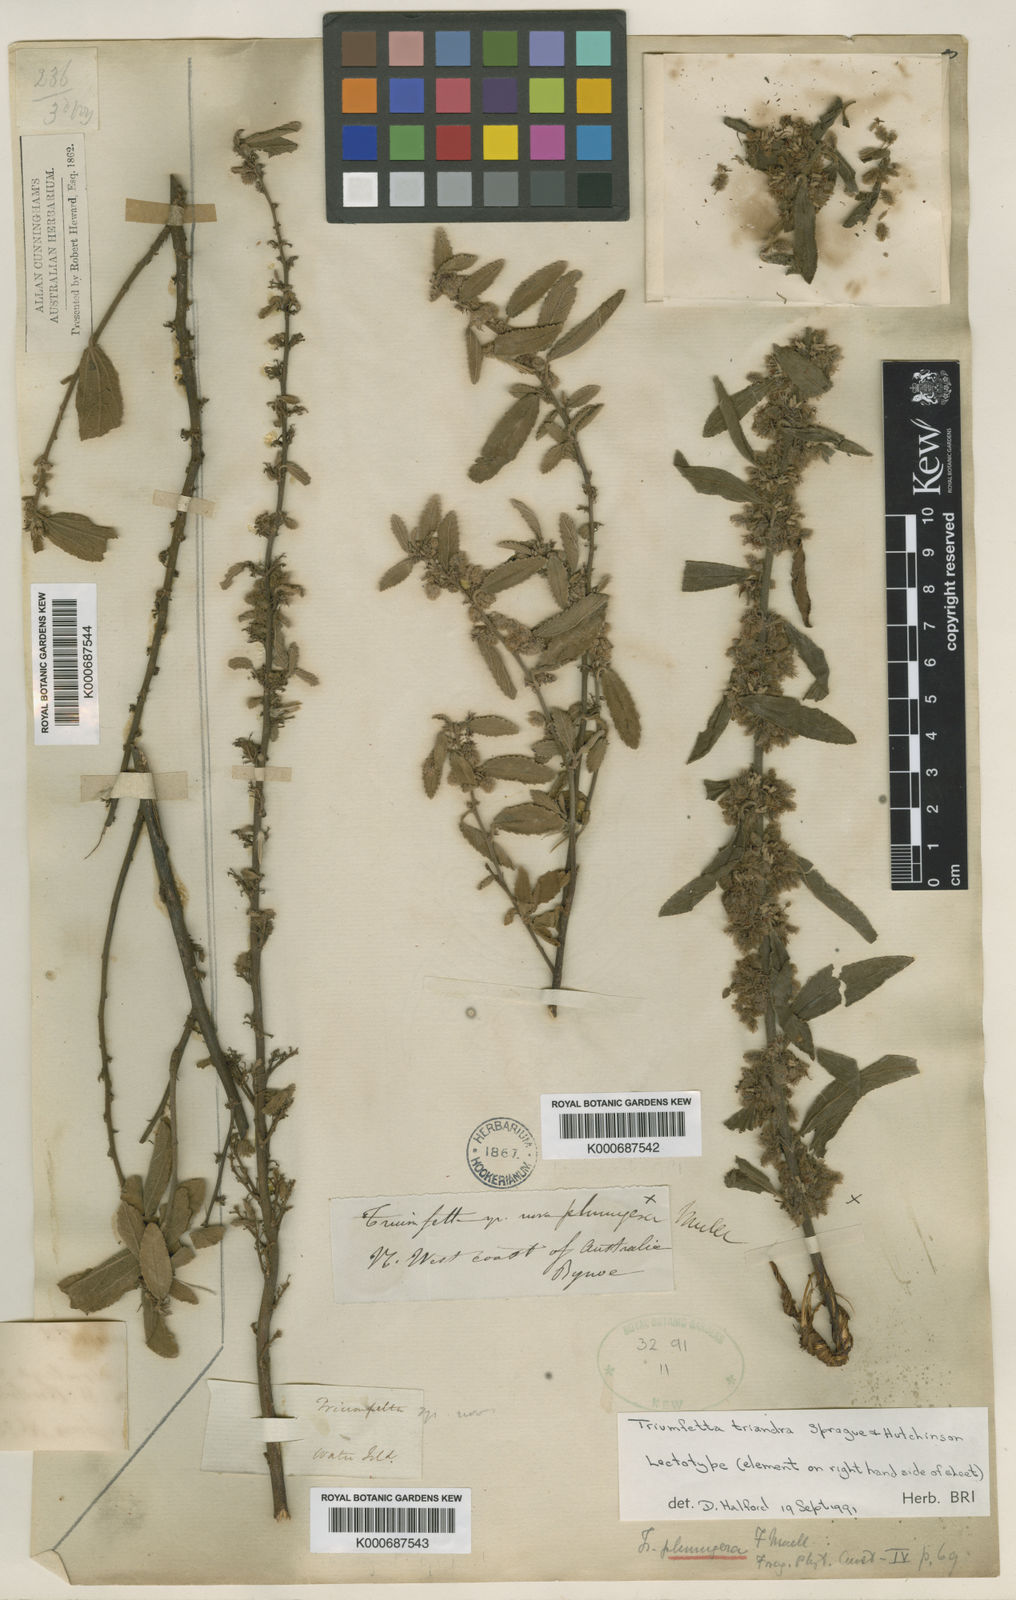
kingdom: Plantae
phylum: Tracheophyta
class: Magnoliopsida
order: Malvales
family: Malvaceae
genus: Triumfetta
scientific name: Triumfetta triandra
